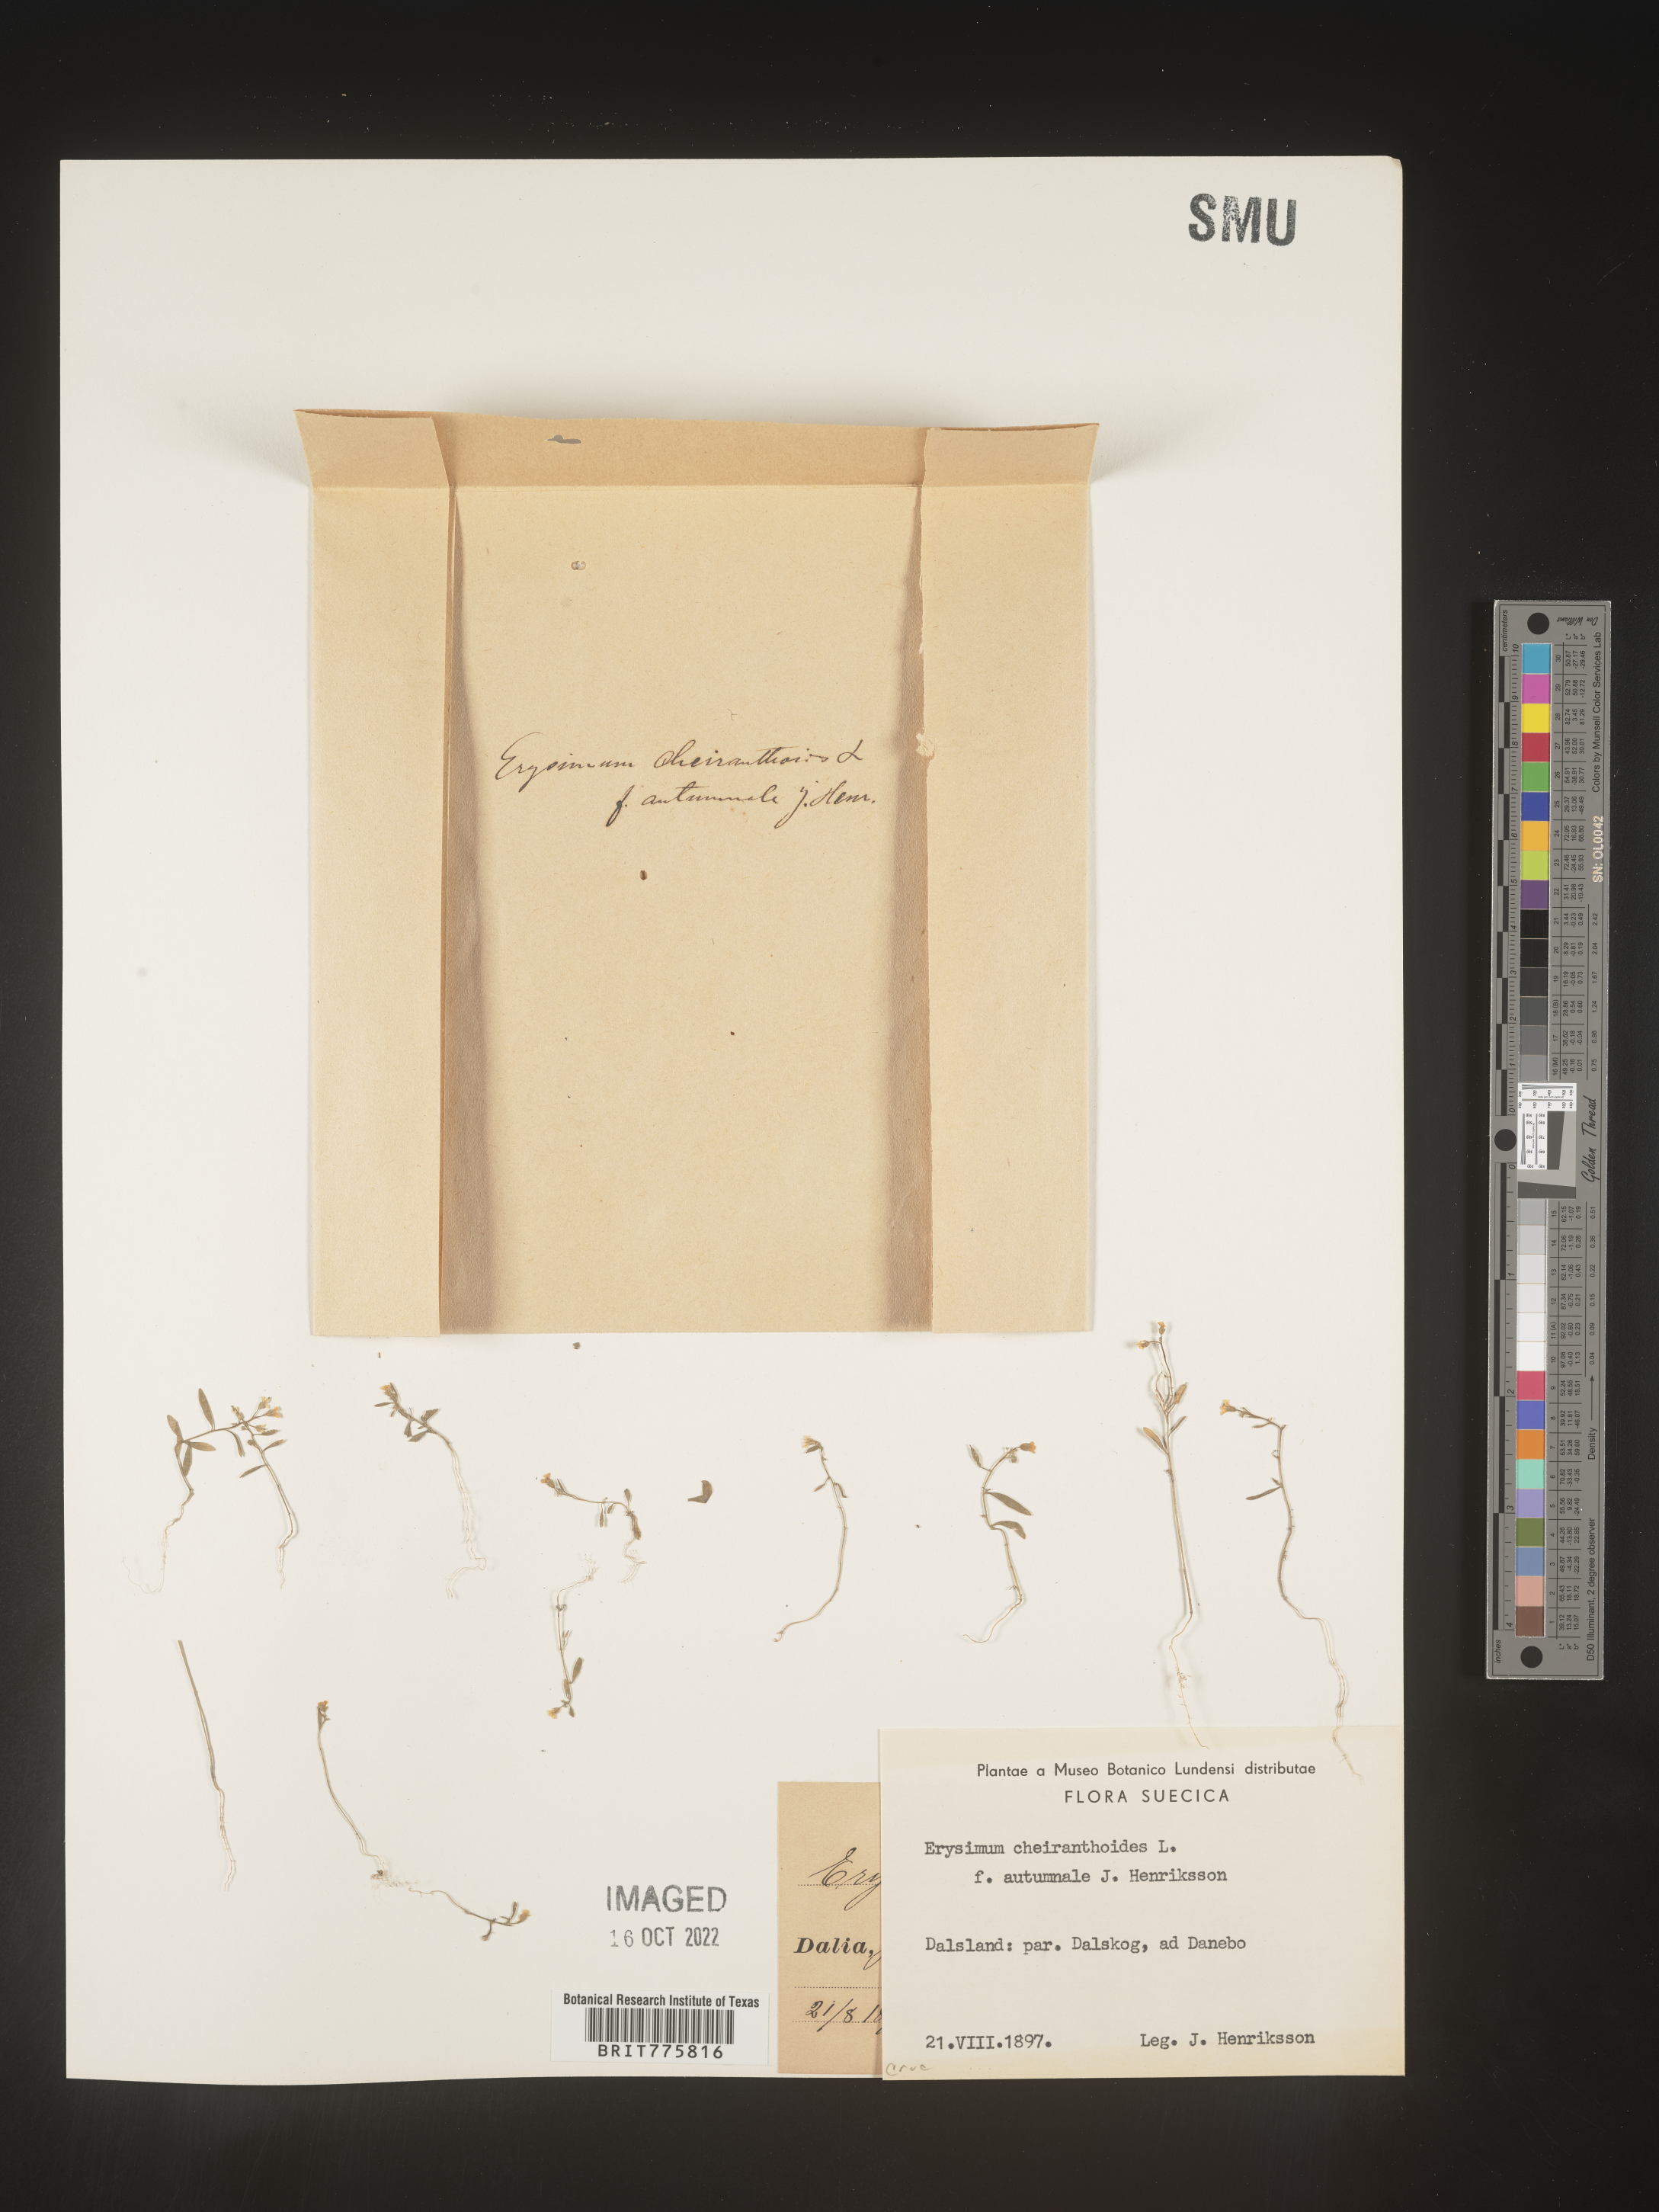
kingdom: Plantae
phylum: Tracheophyta
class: Magnoliopsida
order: Brassicales
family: Brassicaceae
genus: Erysimum
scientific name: Erysimum
